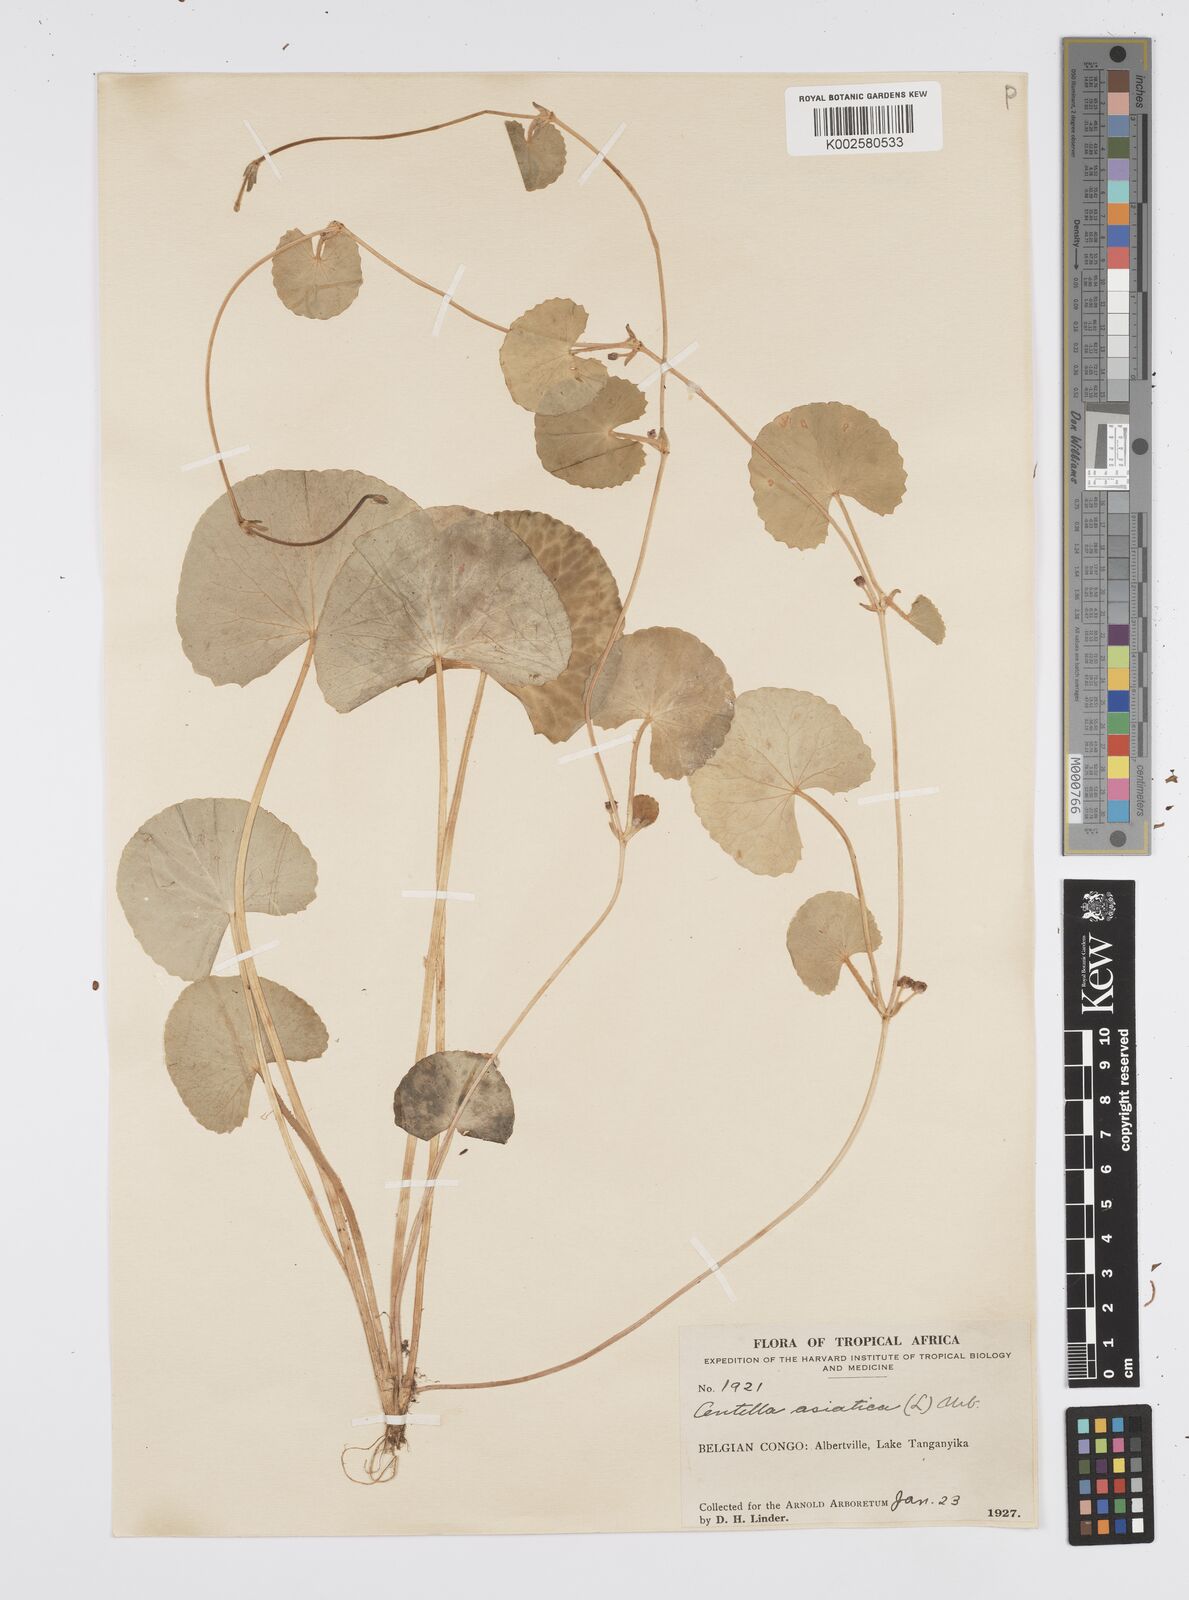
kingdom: Plantae
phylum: Tracheophyta
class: Magnoliopsida
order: Apiales
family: Apiaceae
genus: Centella
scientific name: Centella asiatica
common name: Spadeleaf
